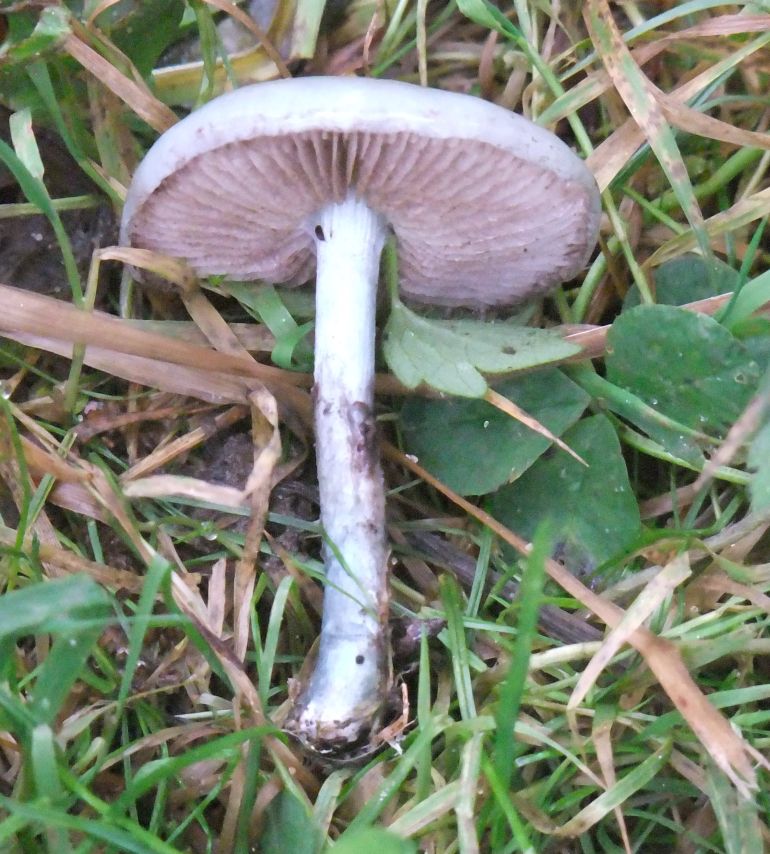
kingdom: Fungi
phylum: Basidiomycota
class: Agaricomycetes
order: Agaricales
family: Strophariaceae
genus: Stropharia
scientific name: Stropharia cyanea
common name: blågrøn bredblad
